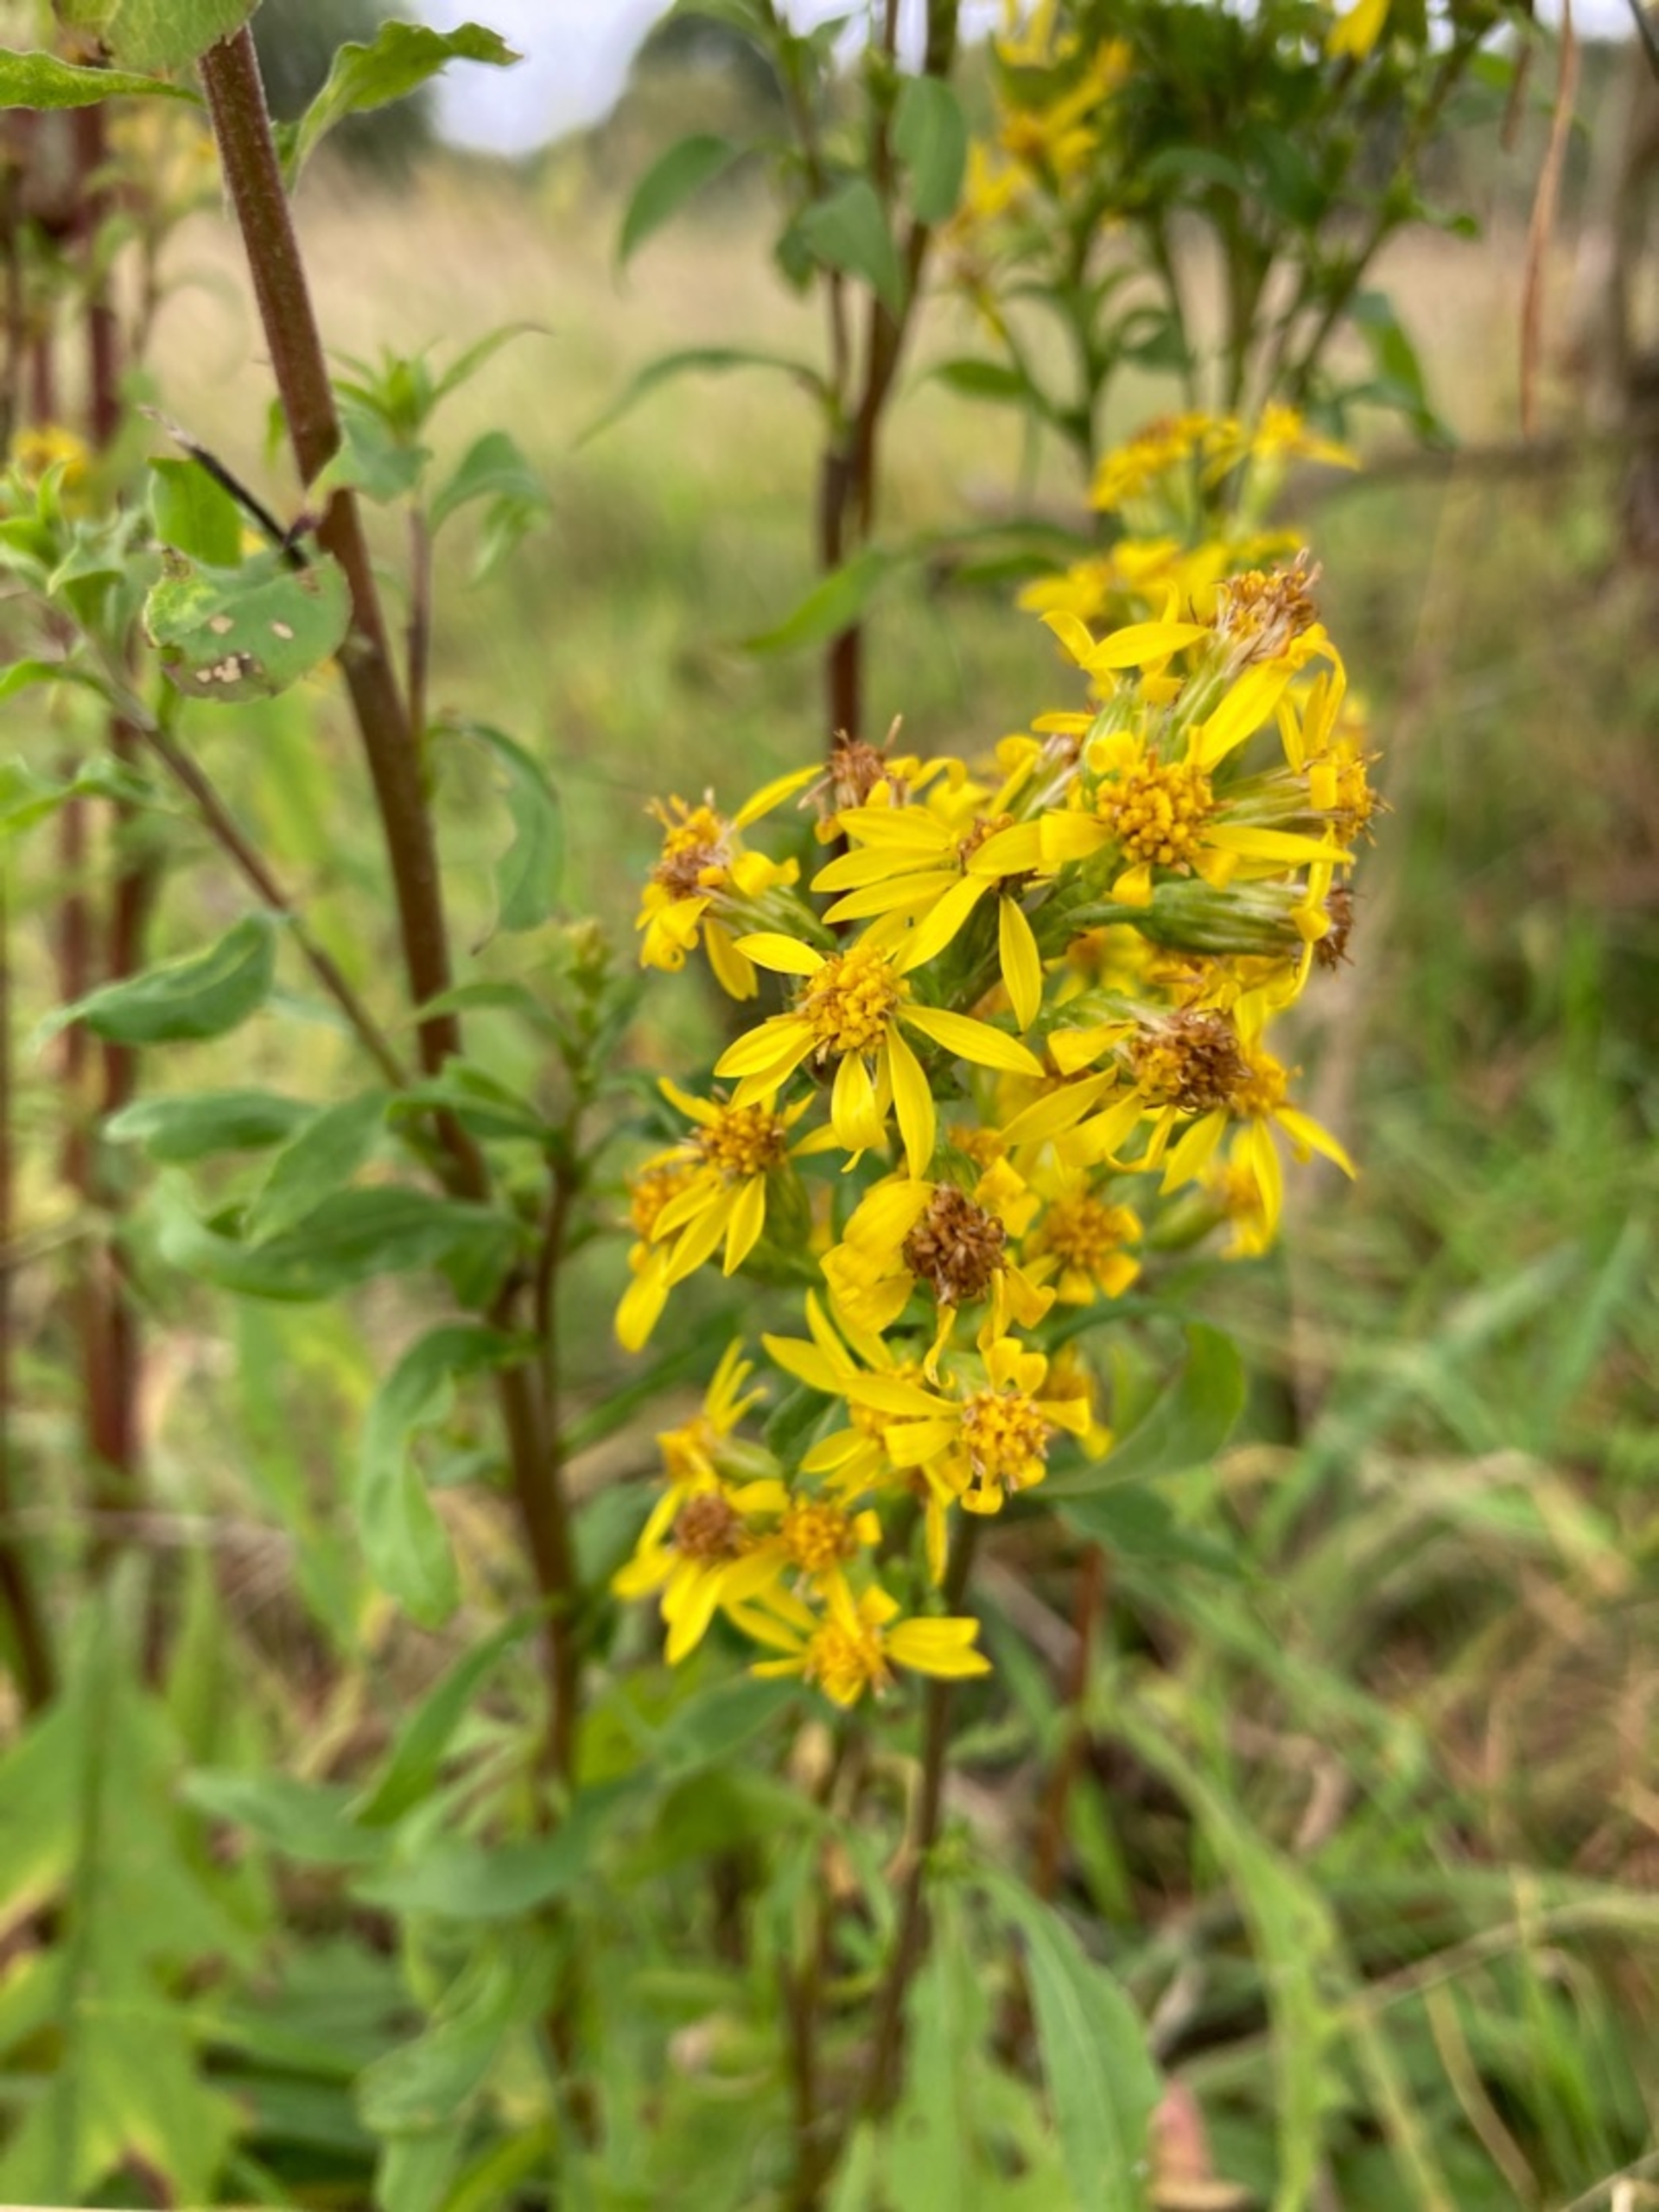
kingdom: Plantae
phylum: Tracheophyta
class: Magnoliopsida
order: Asterales
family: Asteraceae
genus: Solidago
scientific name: Solidago virgaurea
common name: Almindelig gyldenris
